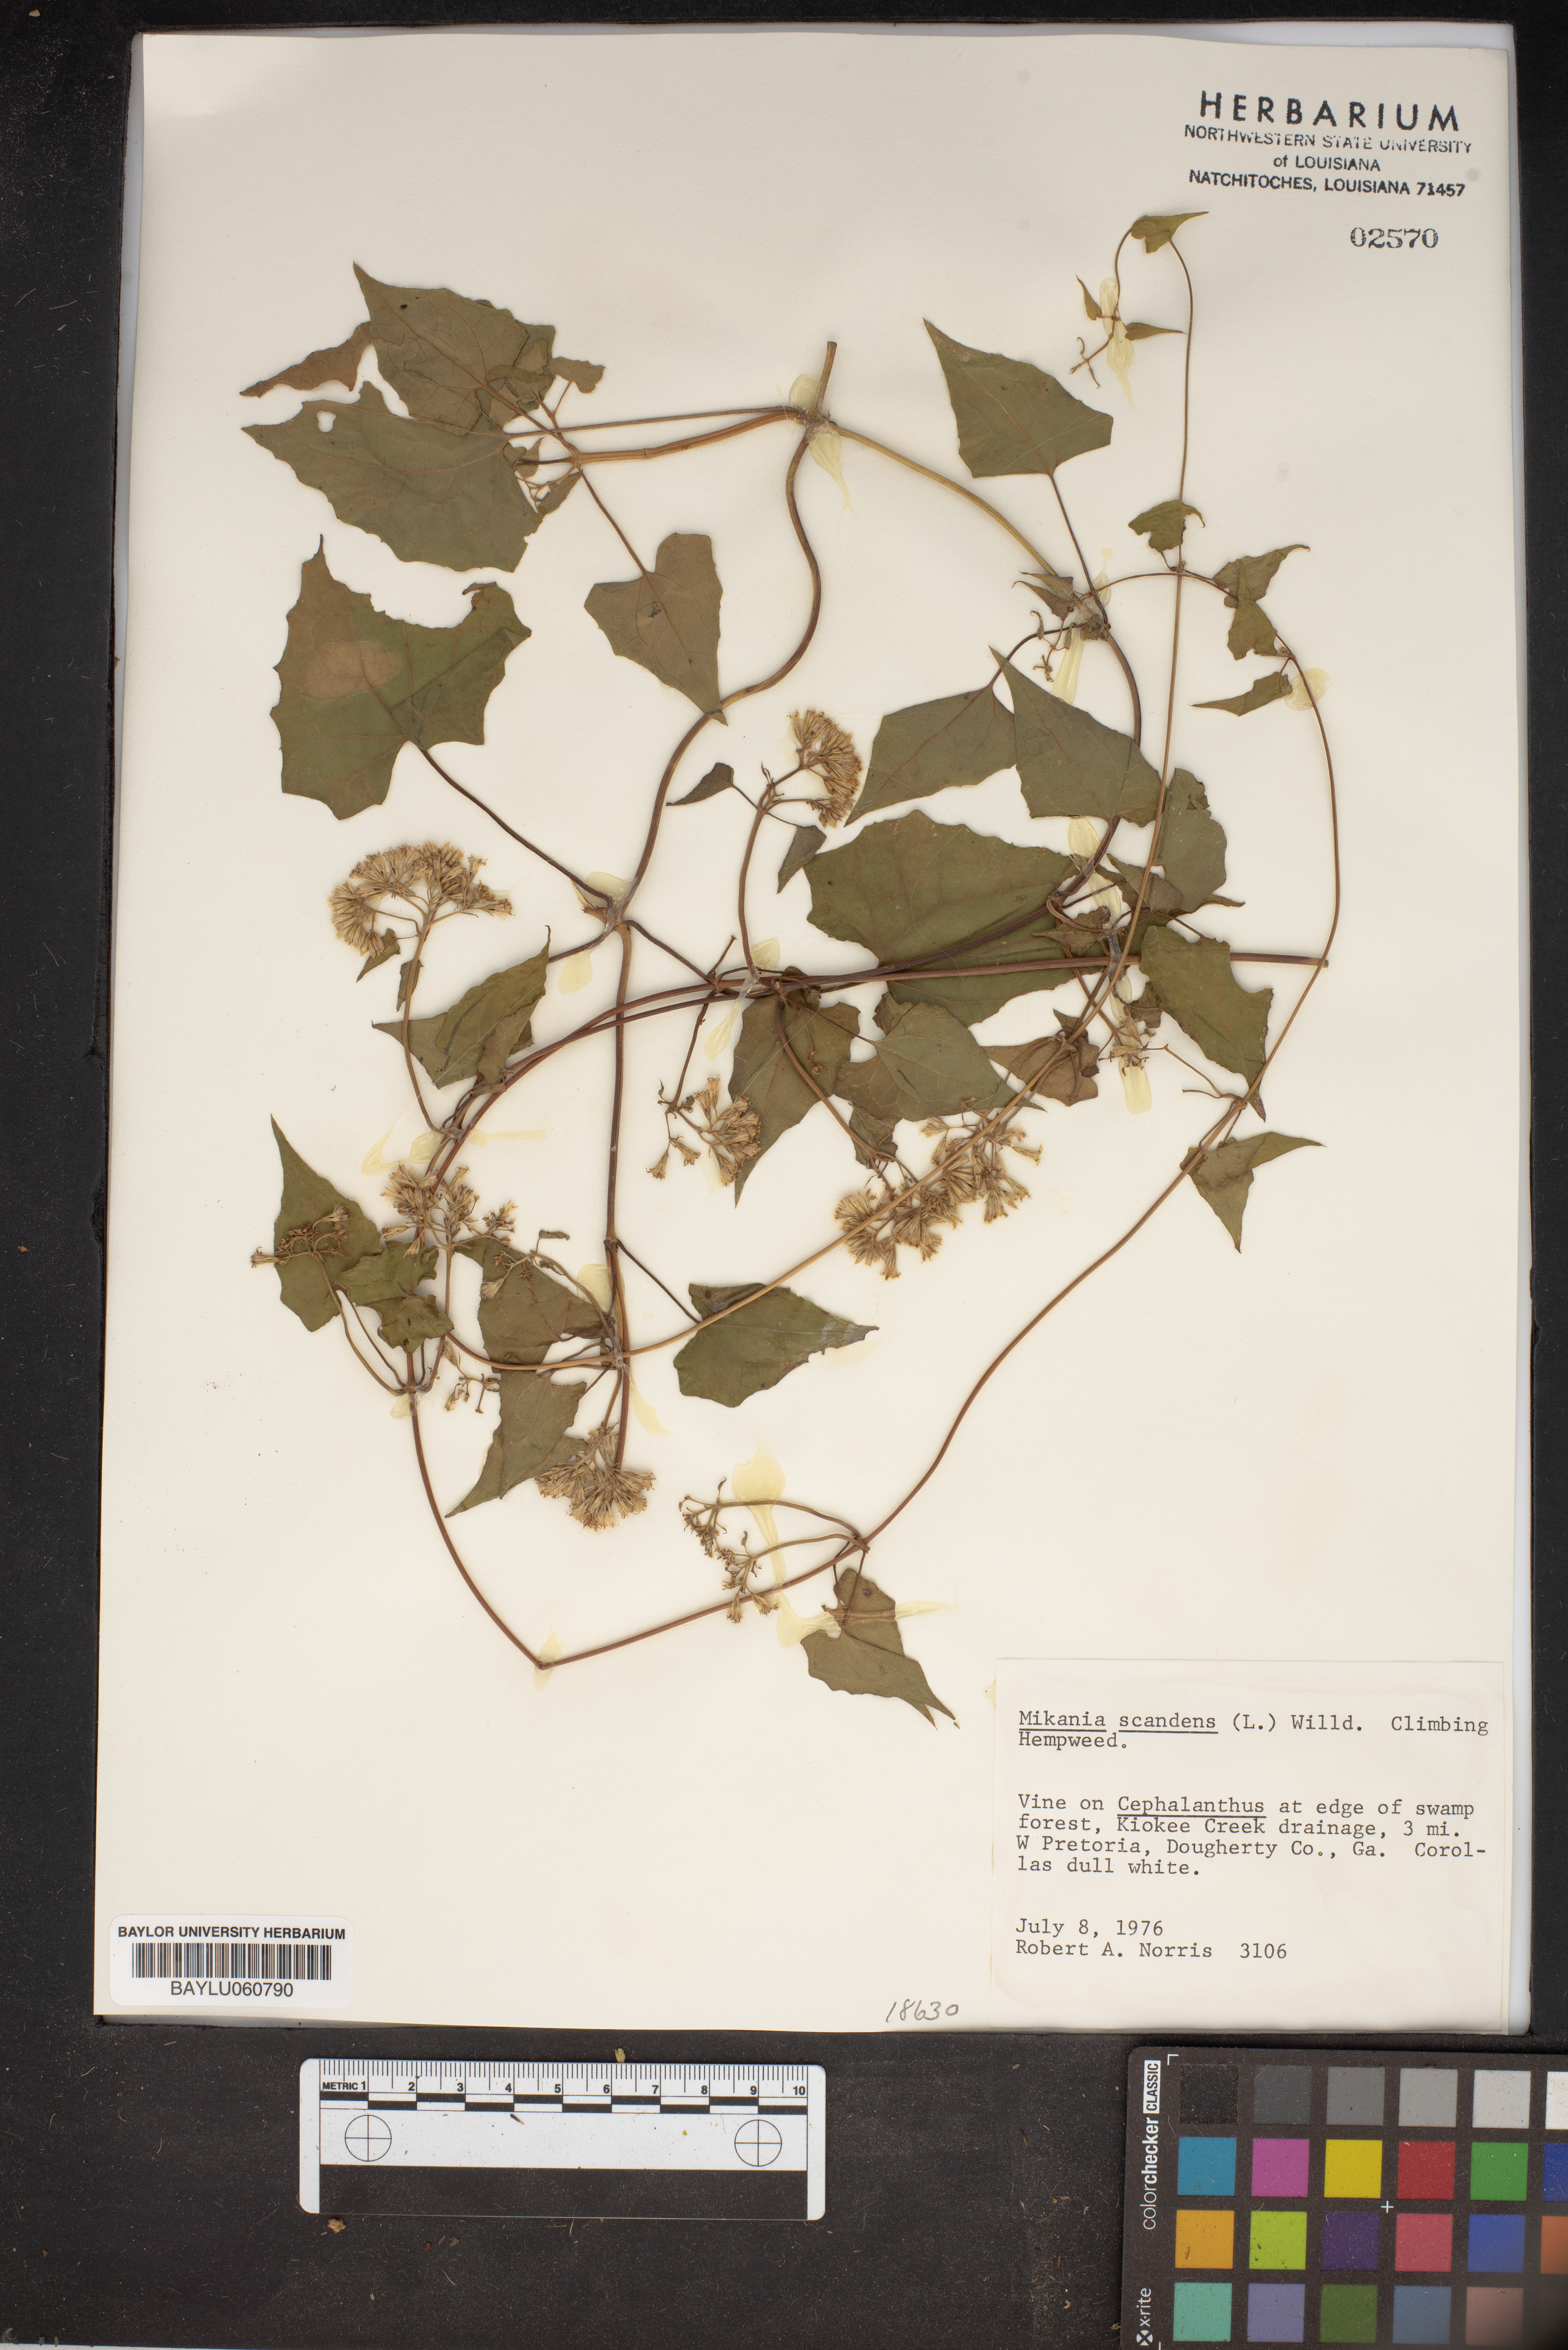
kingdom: Plantae
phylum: Tracheophyta
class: Magnoliopsida
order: Asterales
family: Asteraceae
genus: Mikania
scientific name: Mikania scandens
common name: Climbing hempvine
